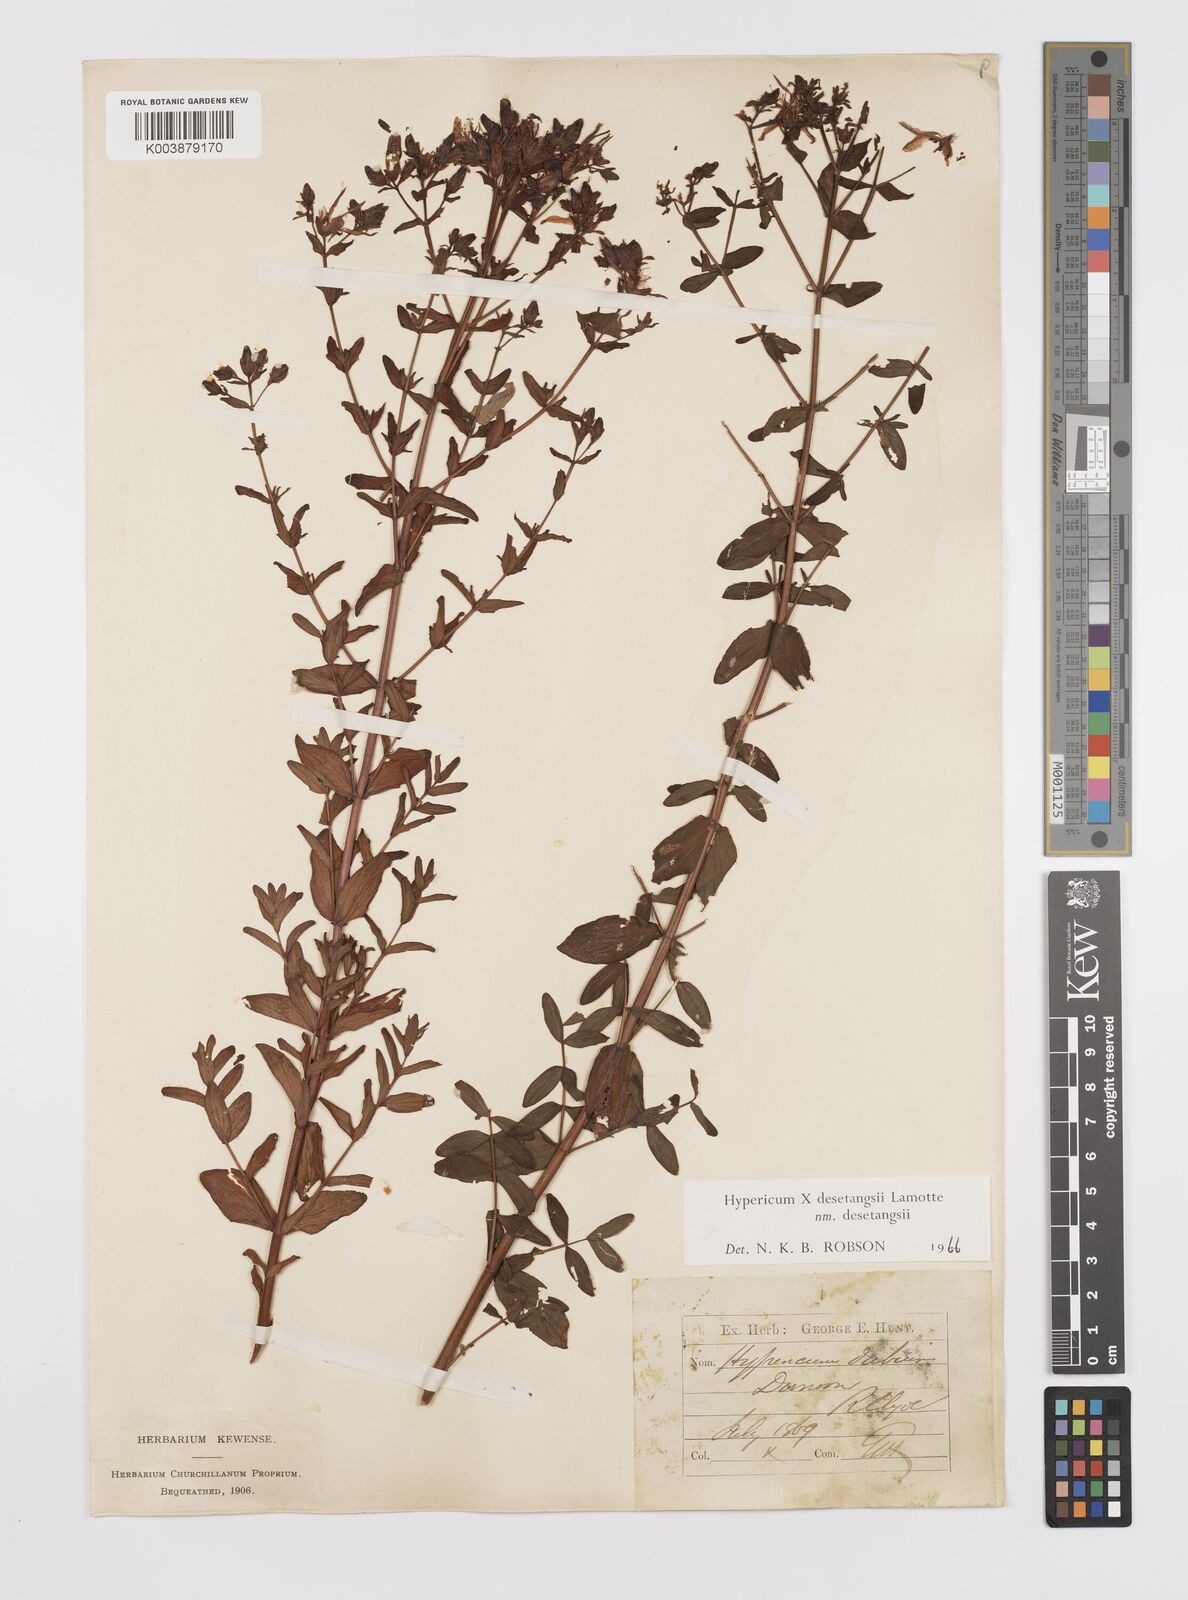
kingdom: Plantae
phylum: Tracheophyta
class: Magnoliopsida
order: Malpighiales
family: Hypericaceae
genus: Hypericum
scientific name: Hypericum desetangsii
